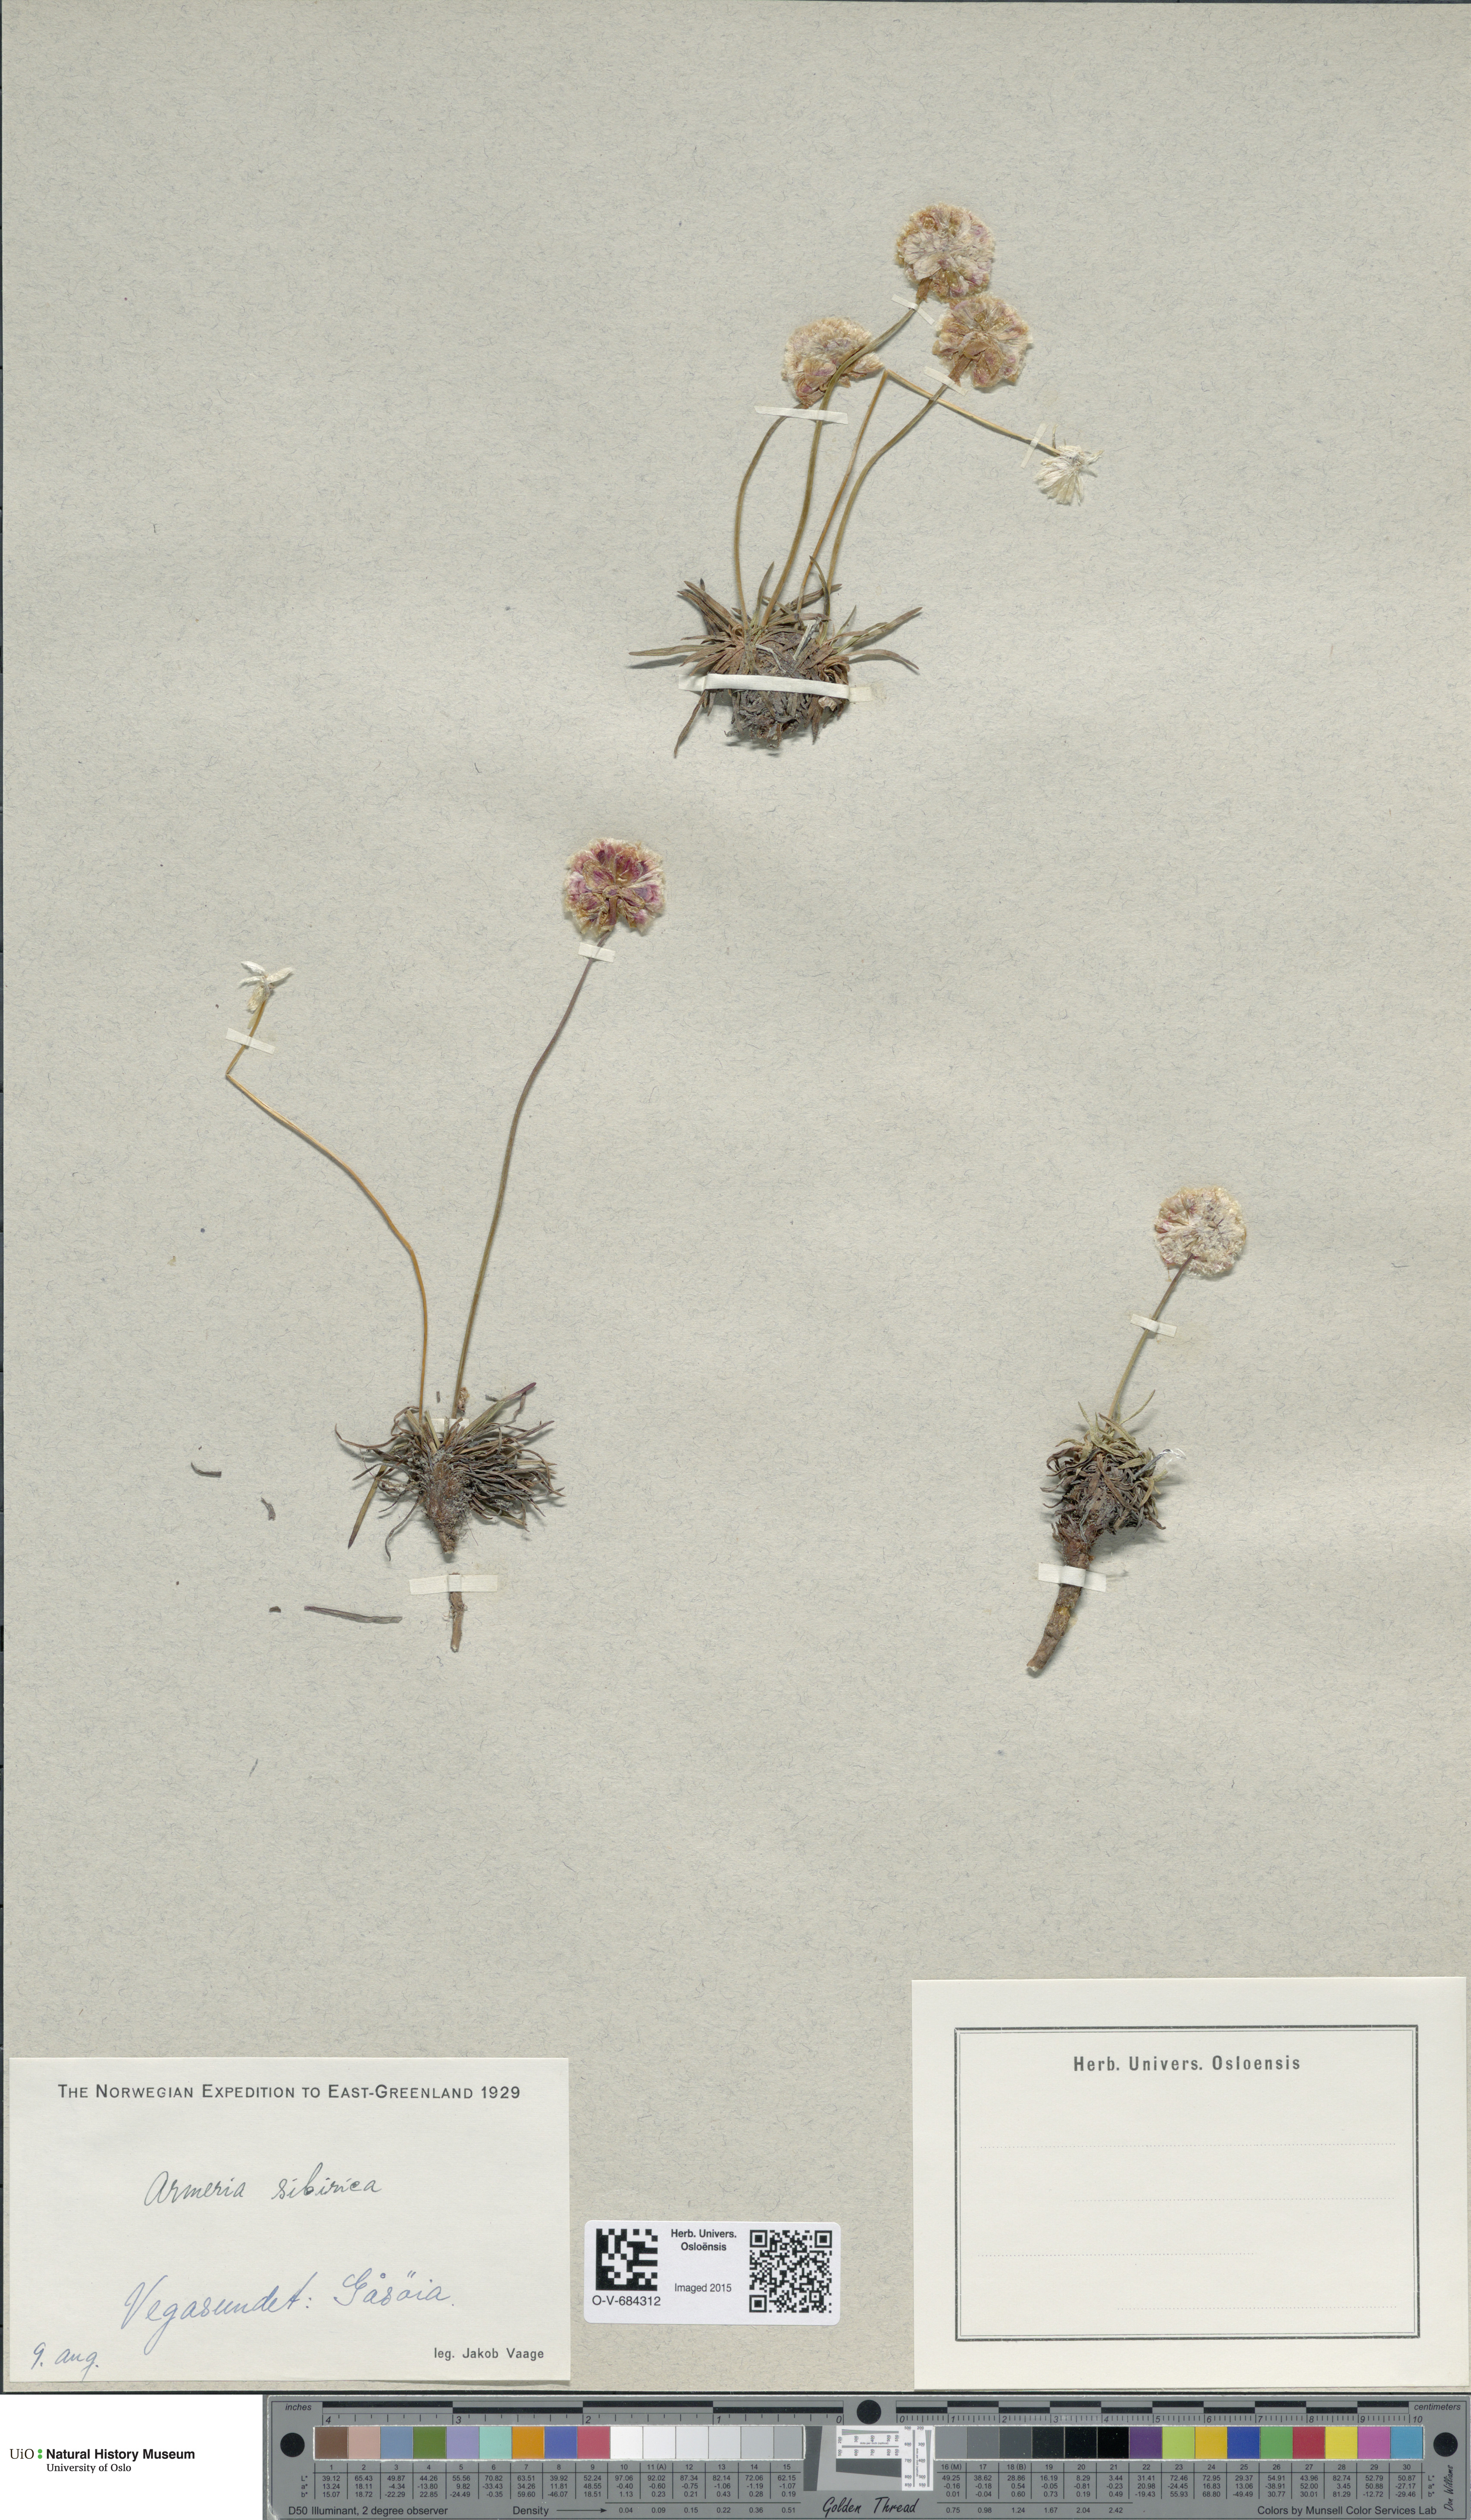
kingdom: Plantae
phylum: Tracheophyta
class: Magnoliopsida
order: Caryophyllales
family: Plumbaginaceae
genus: Armeria
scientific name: Armeria maritima
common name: Thrift
